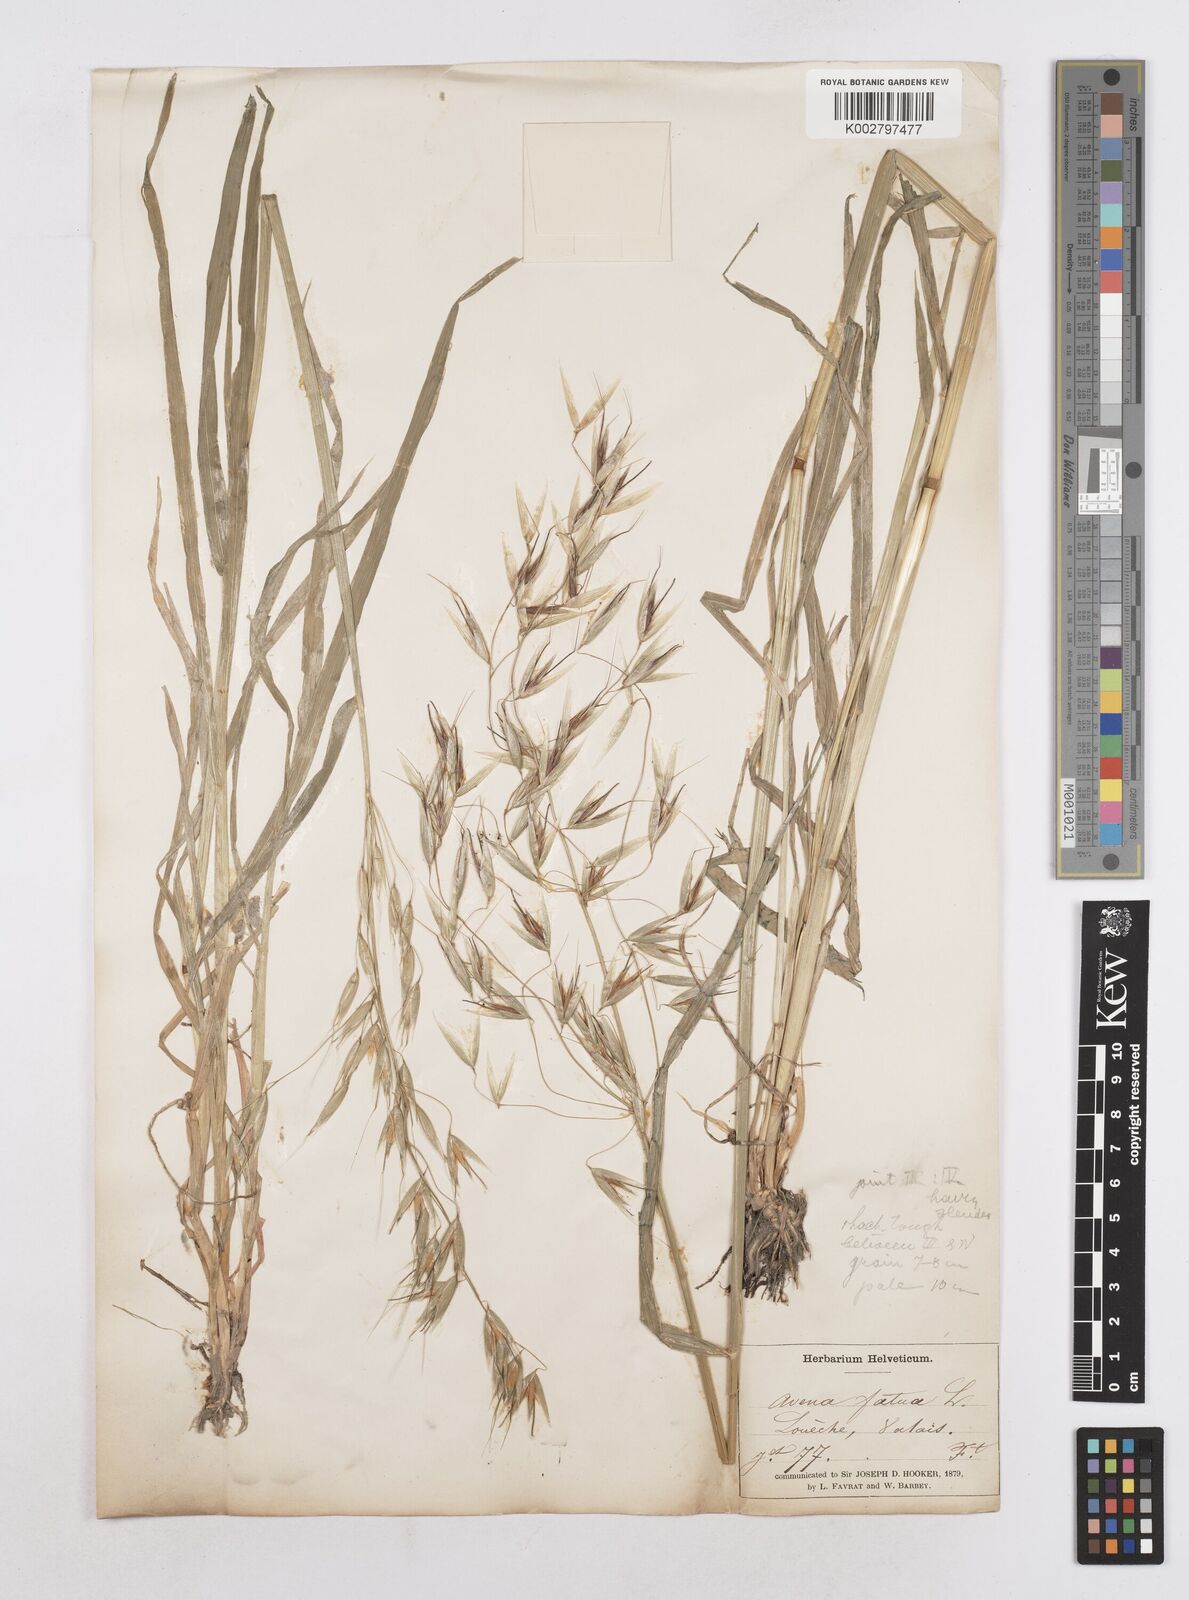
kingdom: Plantae
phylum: Tracheophyta
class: Liliopsida
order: Poales
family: Poaceae
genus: Avena
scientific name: Avena fatua
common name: Wild oat
